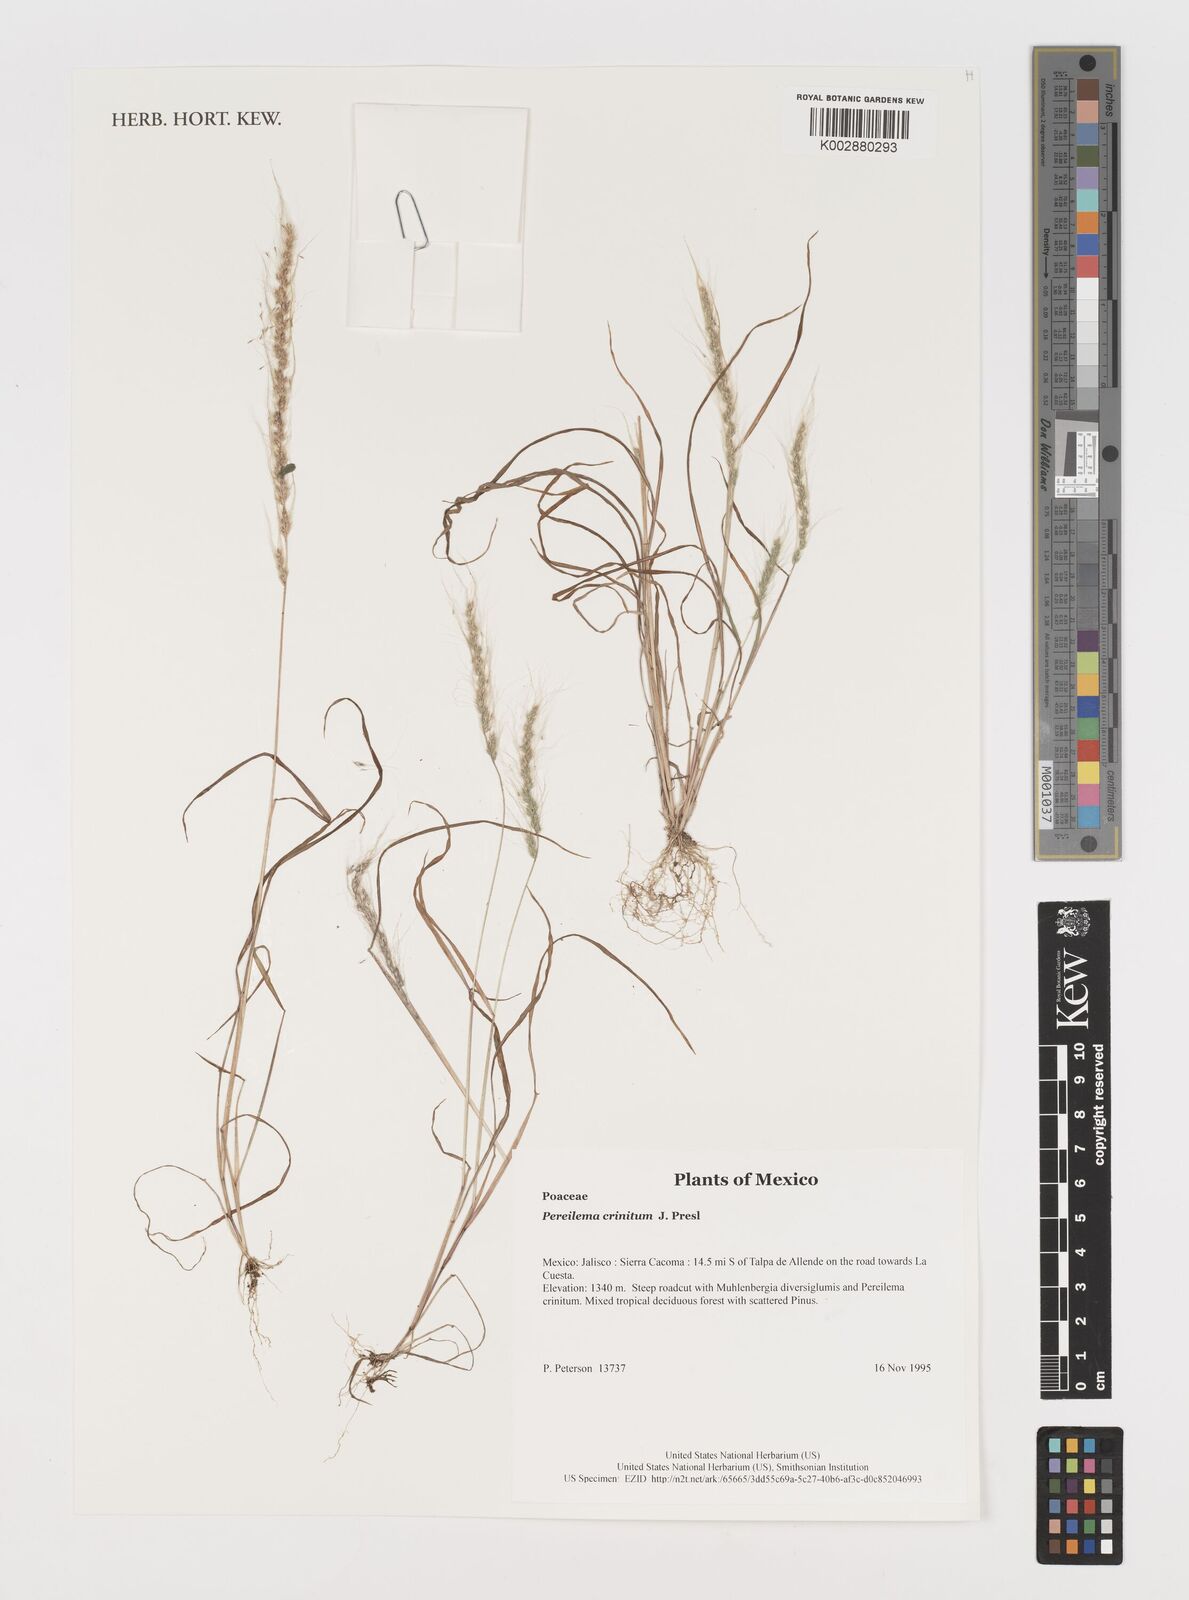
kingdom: Plantae
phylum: Tracheophyta
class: Liliopsida
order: Poales
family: Poaceae
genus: Muhlenbergia
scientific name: Muhlenbergia pereilema
